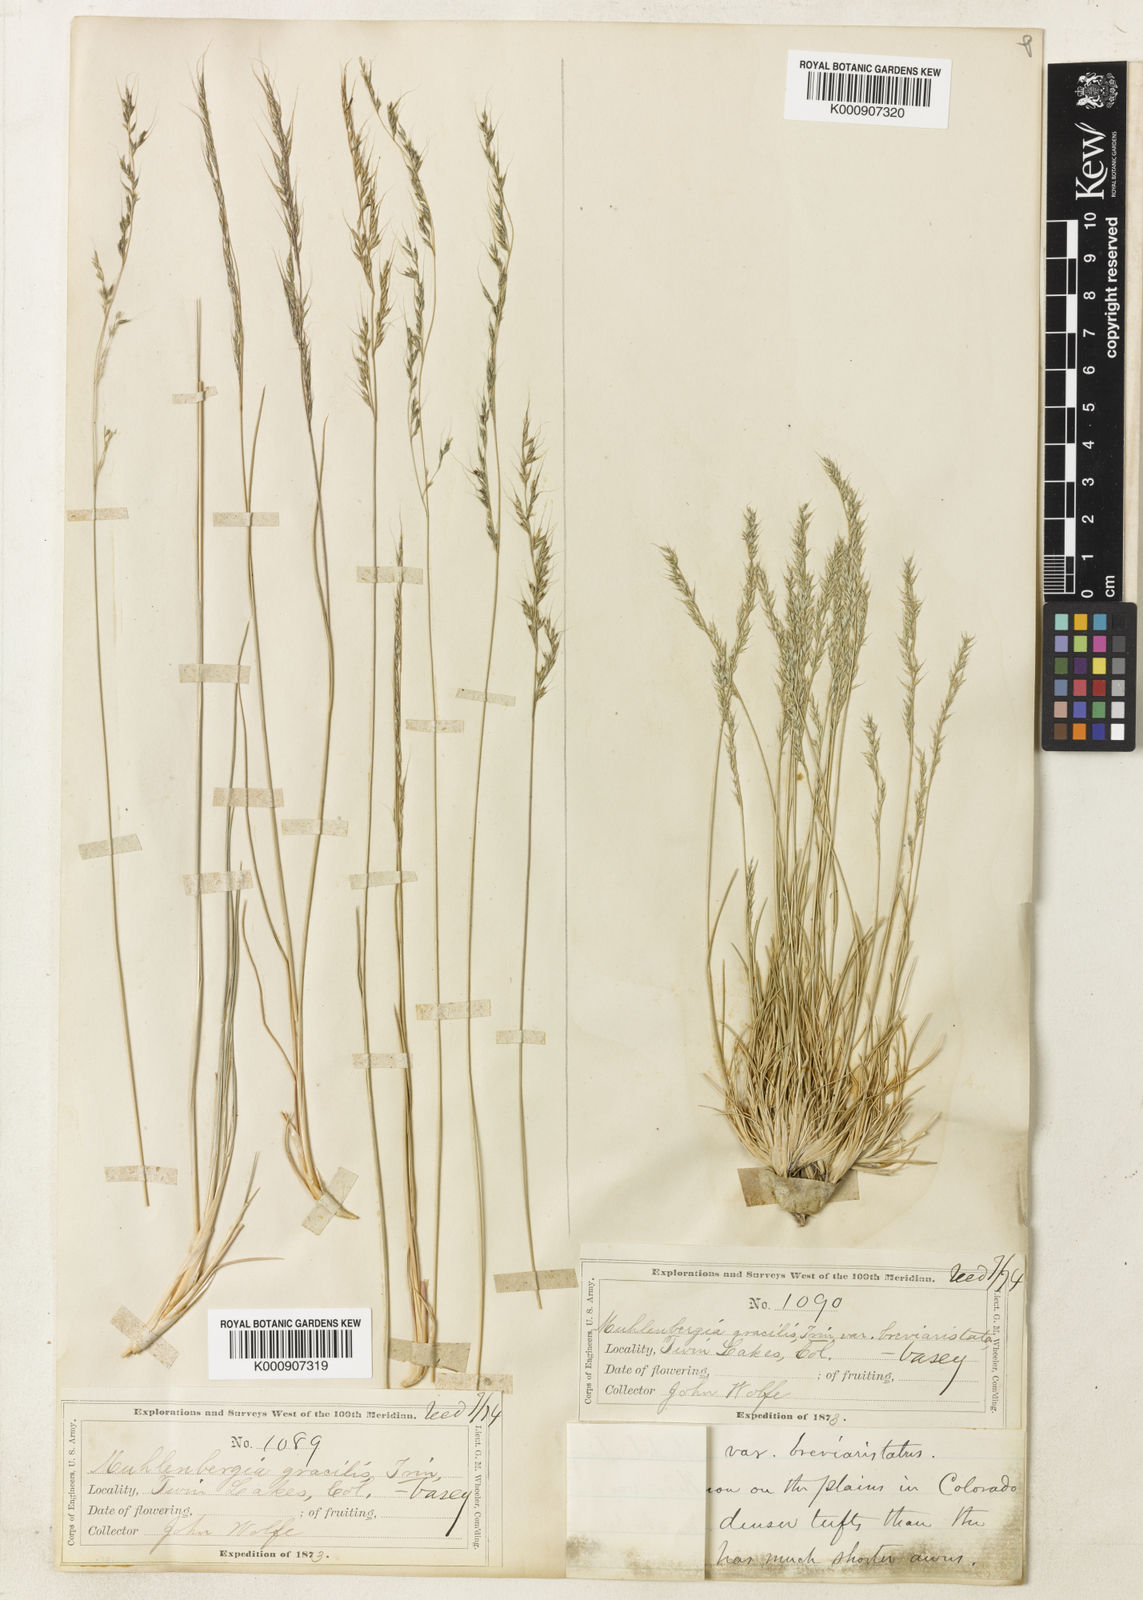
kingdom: Plantae
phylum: Tracheophyta
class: Liliopsida
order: Poales
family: Poaceae
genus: Muhlenbergia
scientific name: Muhlenbergia montana
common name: Mountain muhly
